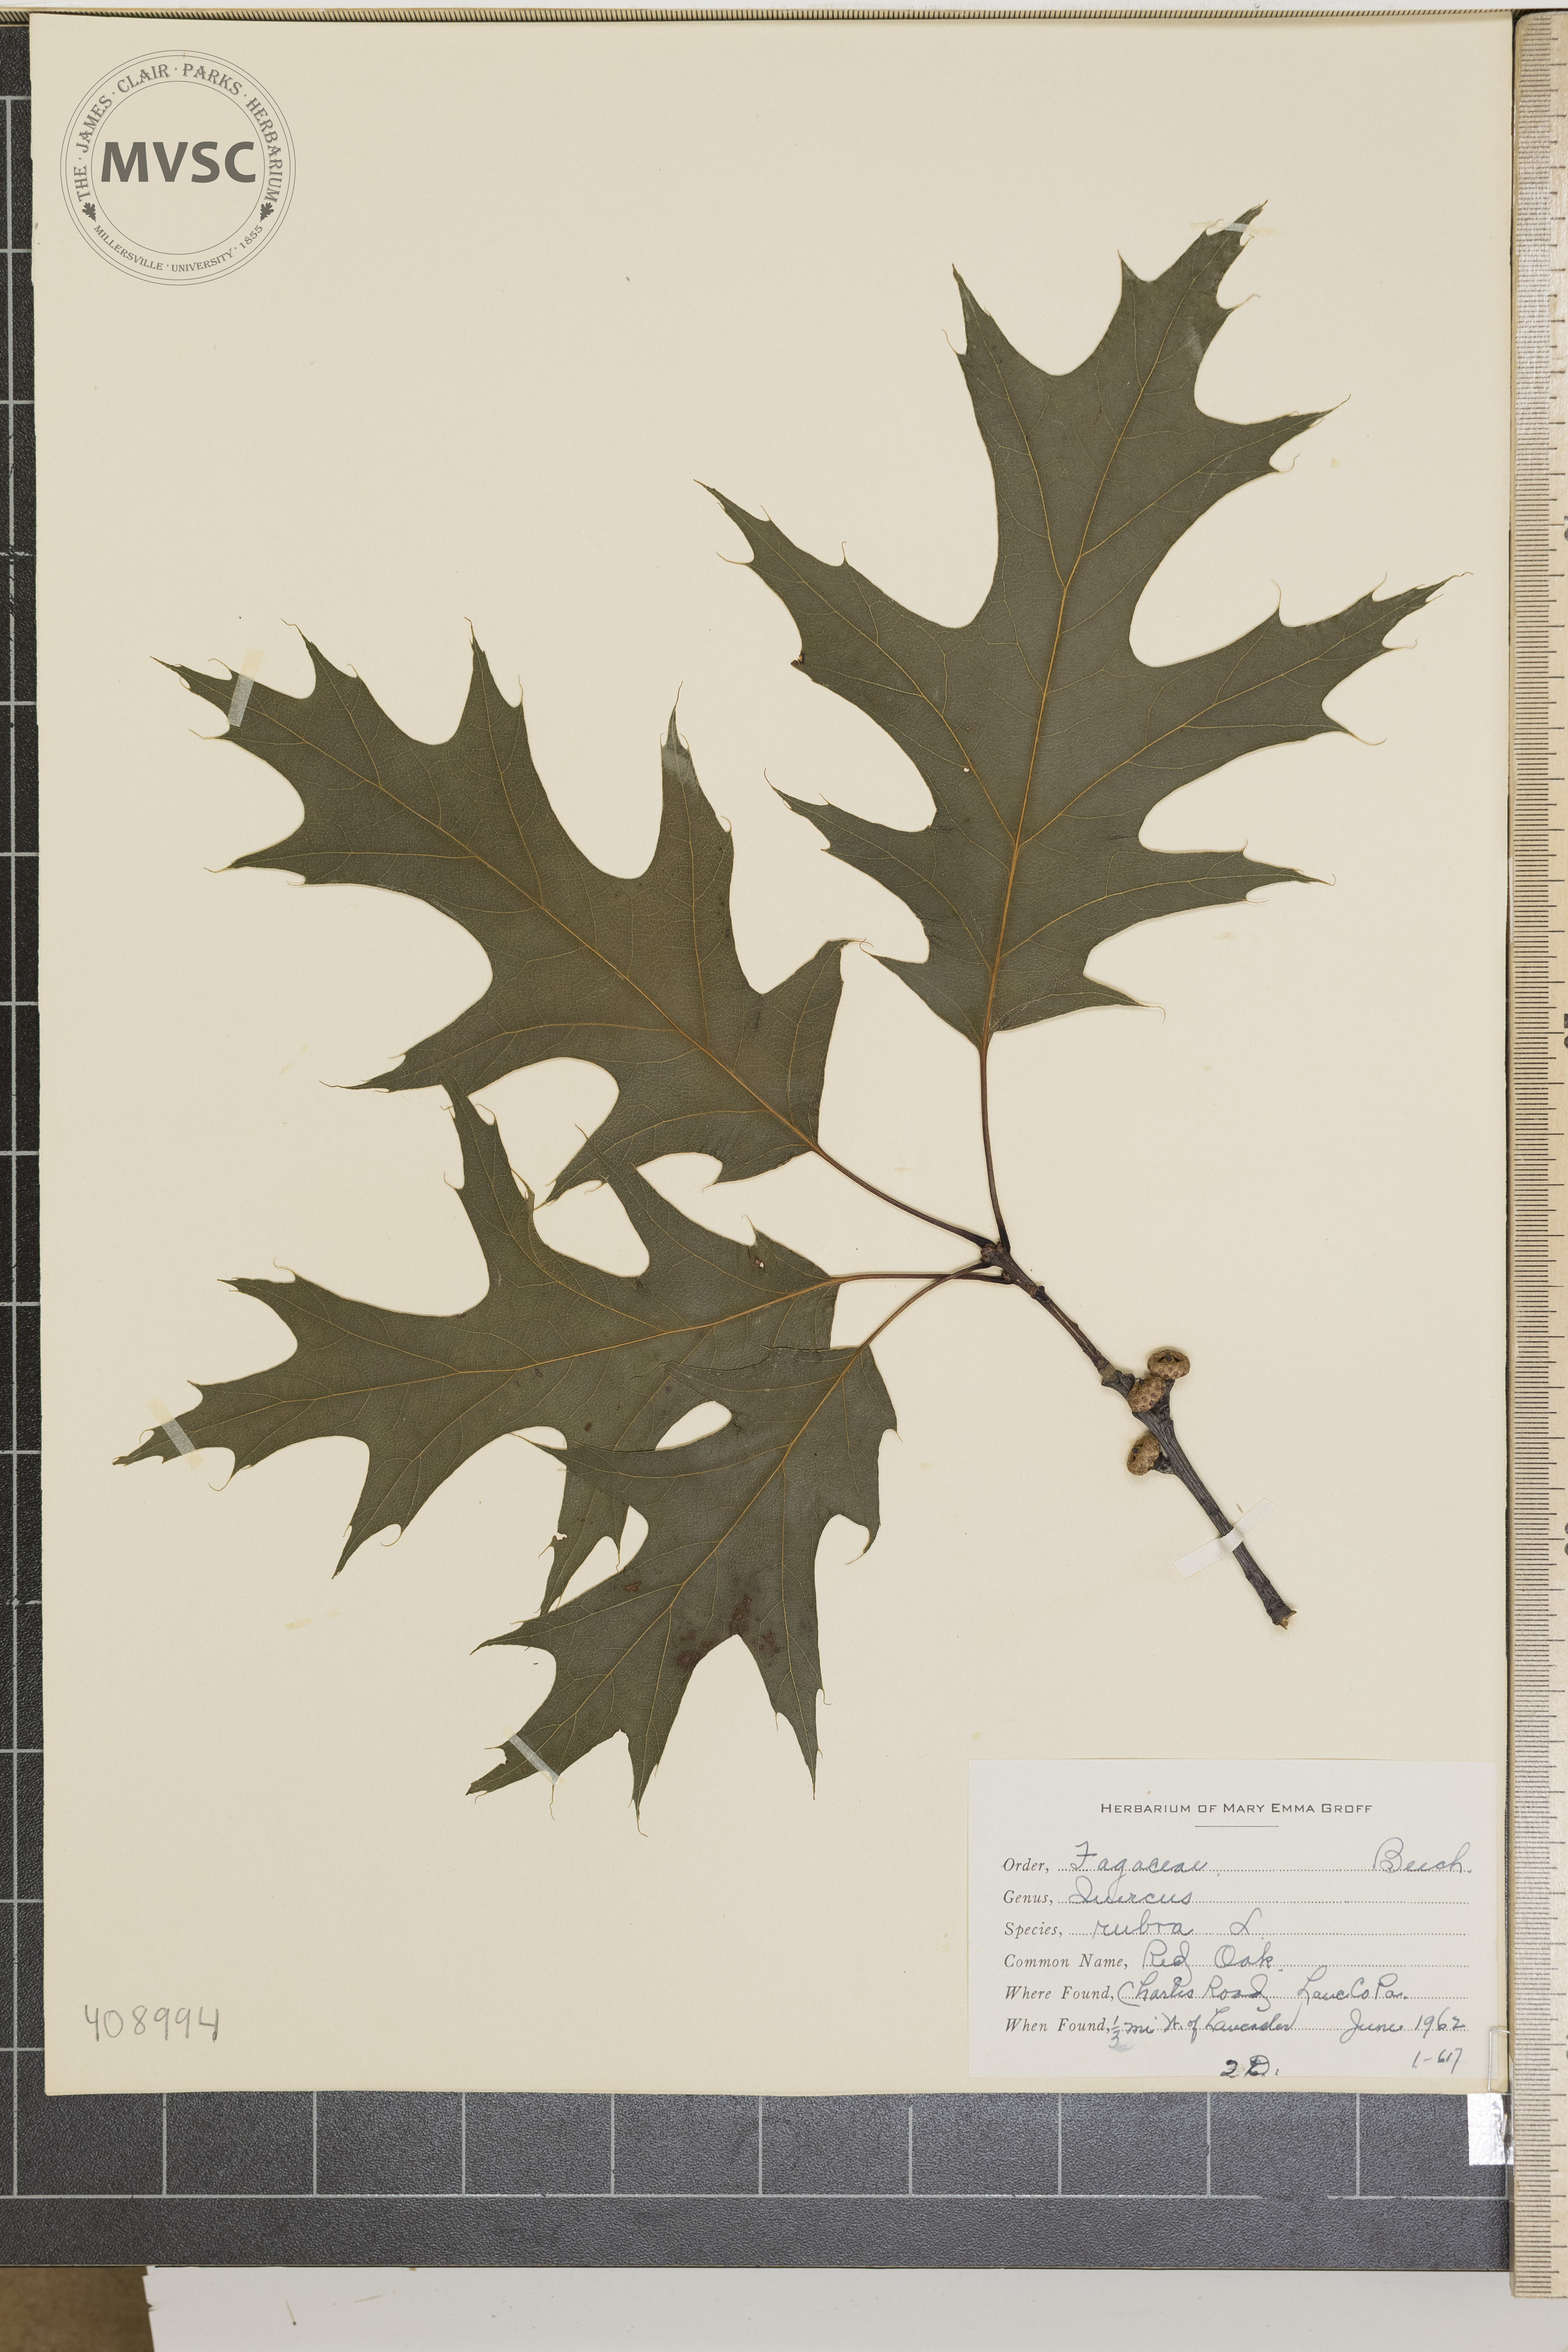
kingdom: Plantae
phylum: Tracheophyta
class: Magnoliopsida
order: Fagales
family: Fagaceae
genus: Quercus
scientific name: Quercus rubra
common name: Red oak
